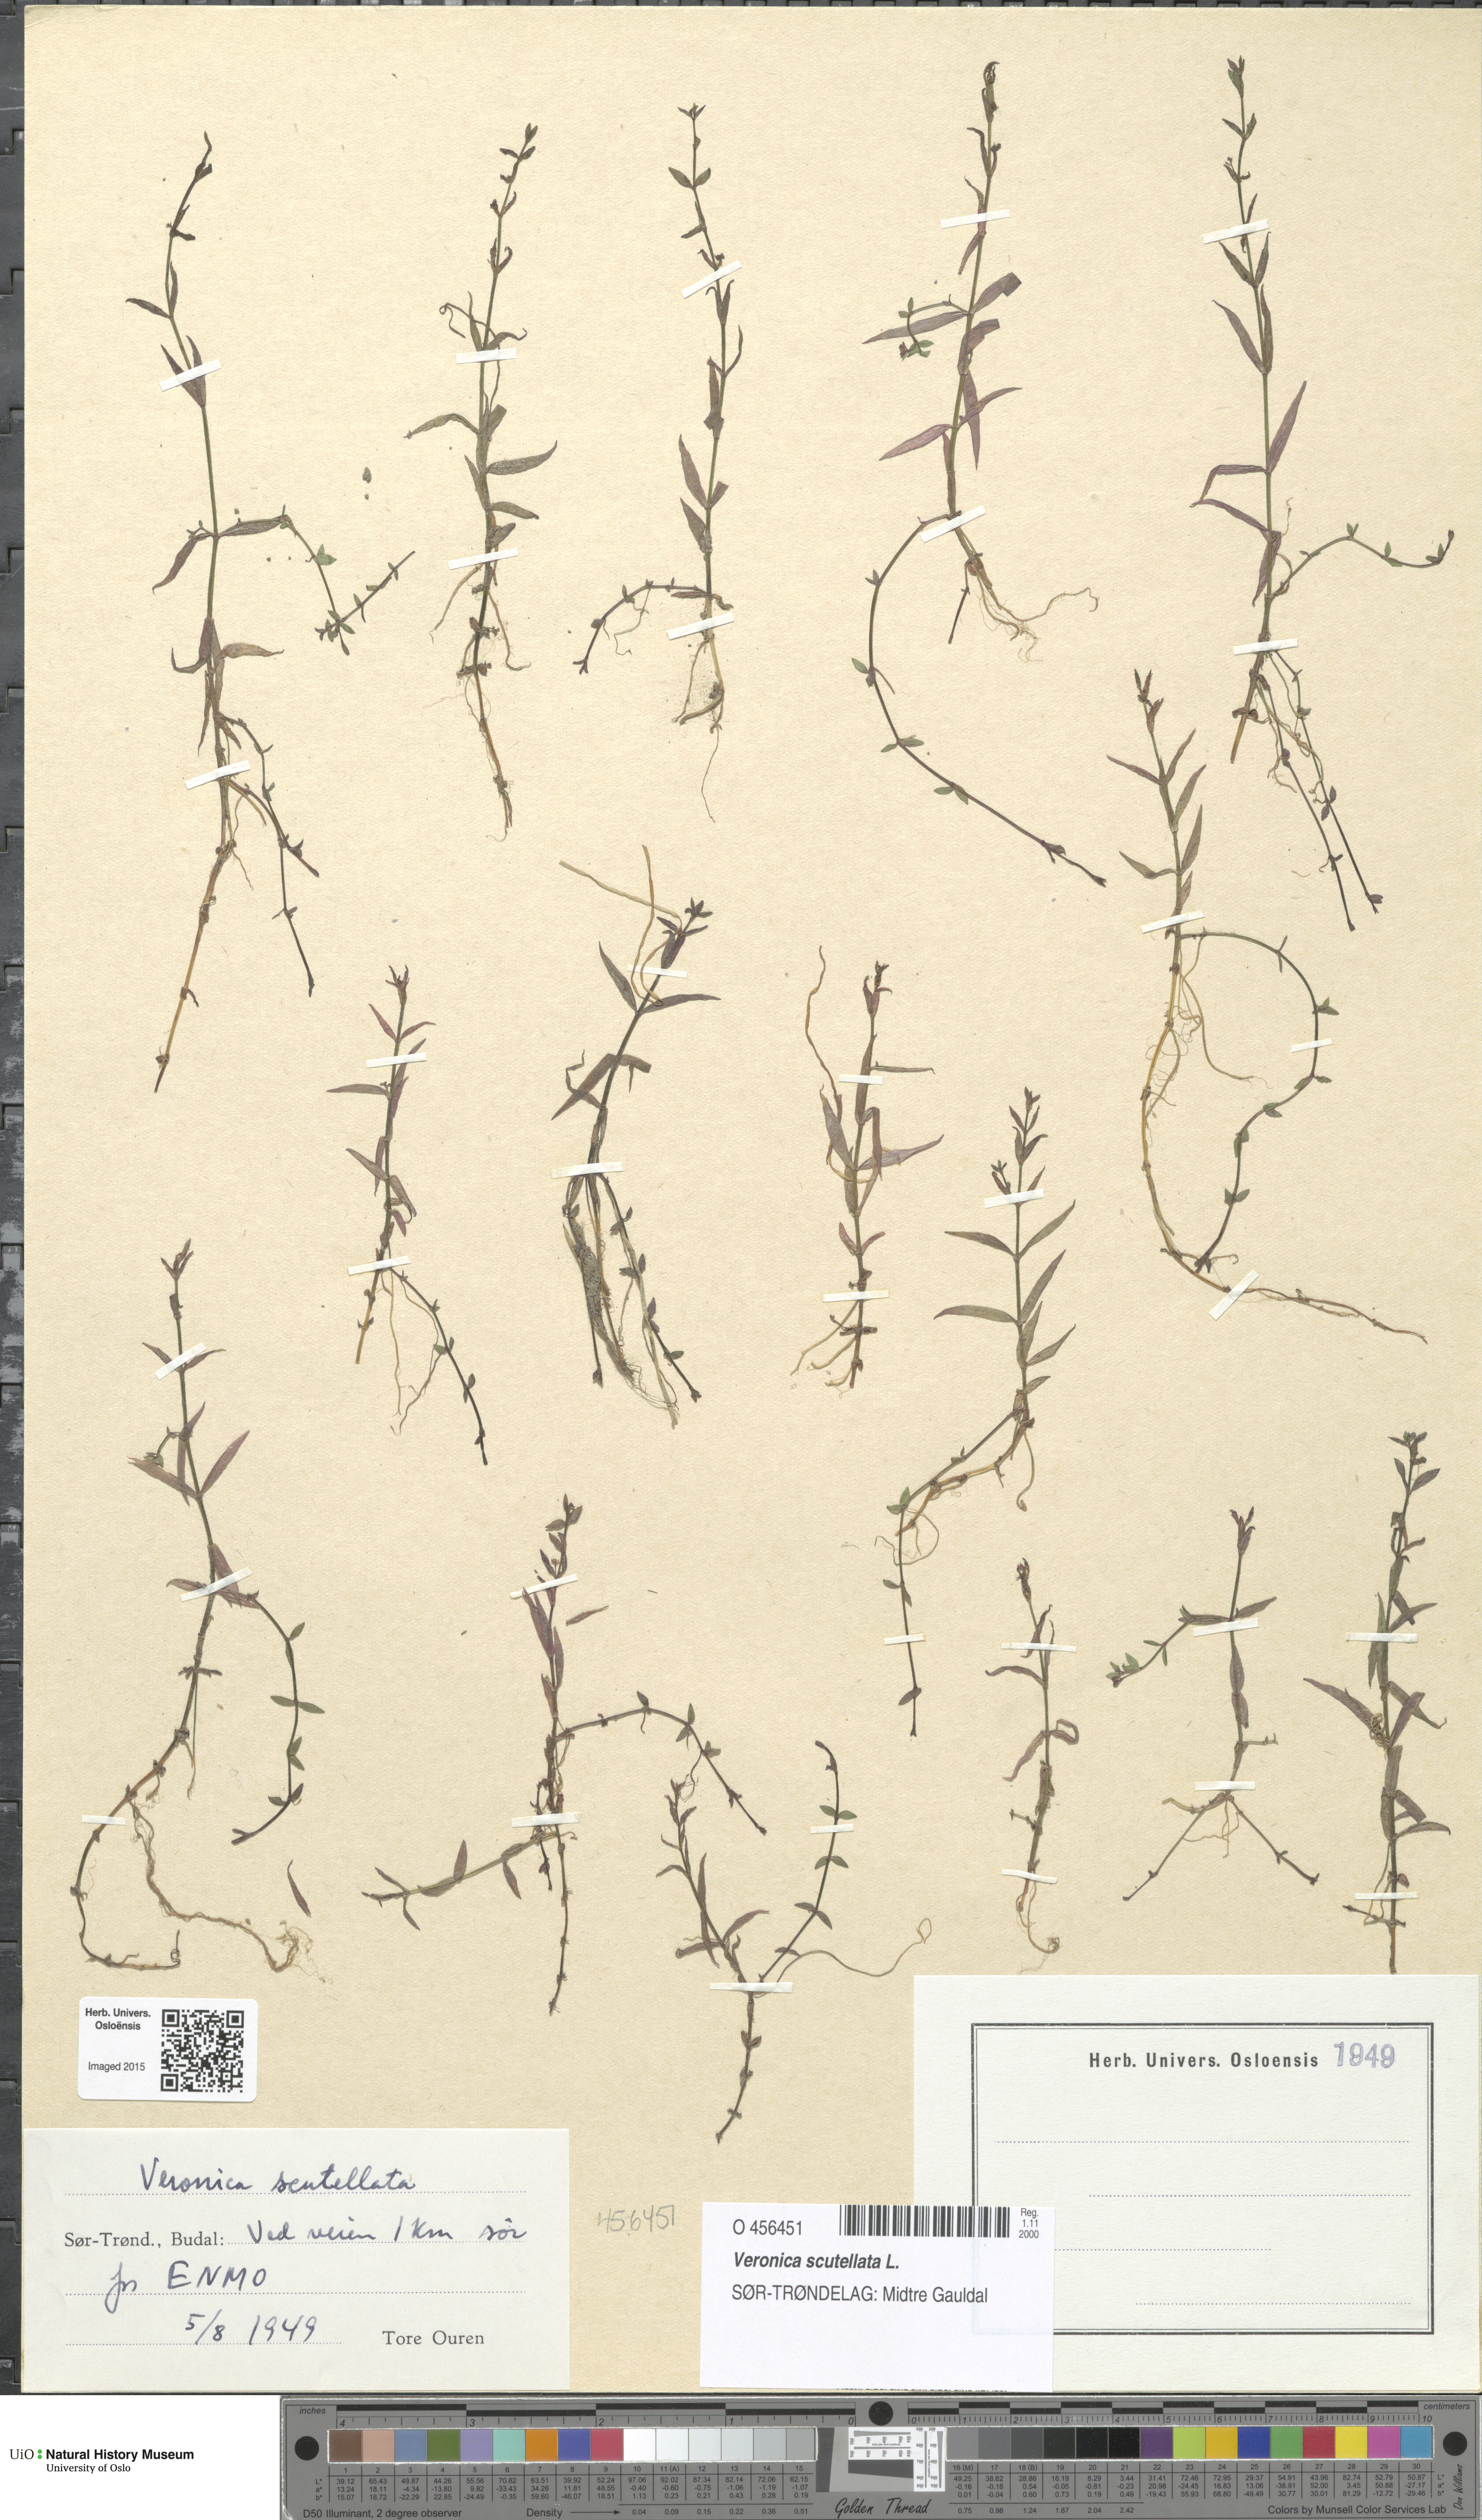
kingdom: Plantae
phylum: Tracheophyta
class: Magnoliopsida
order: Lamiales
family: Plantaginaceae
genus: Veronica
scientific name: Veronica scutellata
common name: Marsh speedwell
